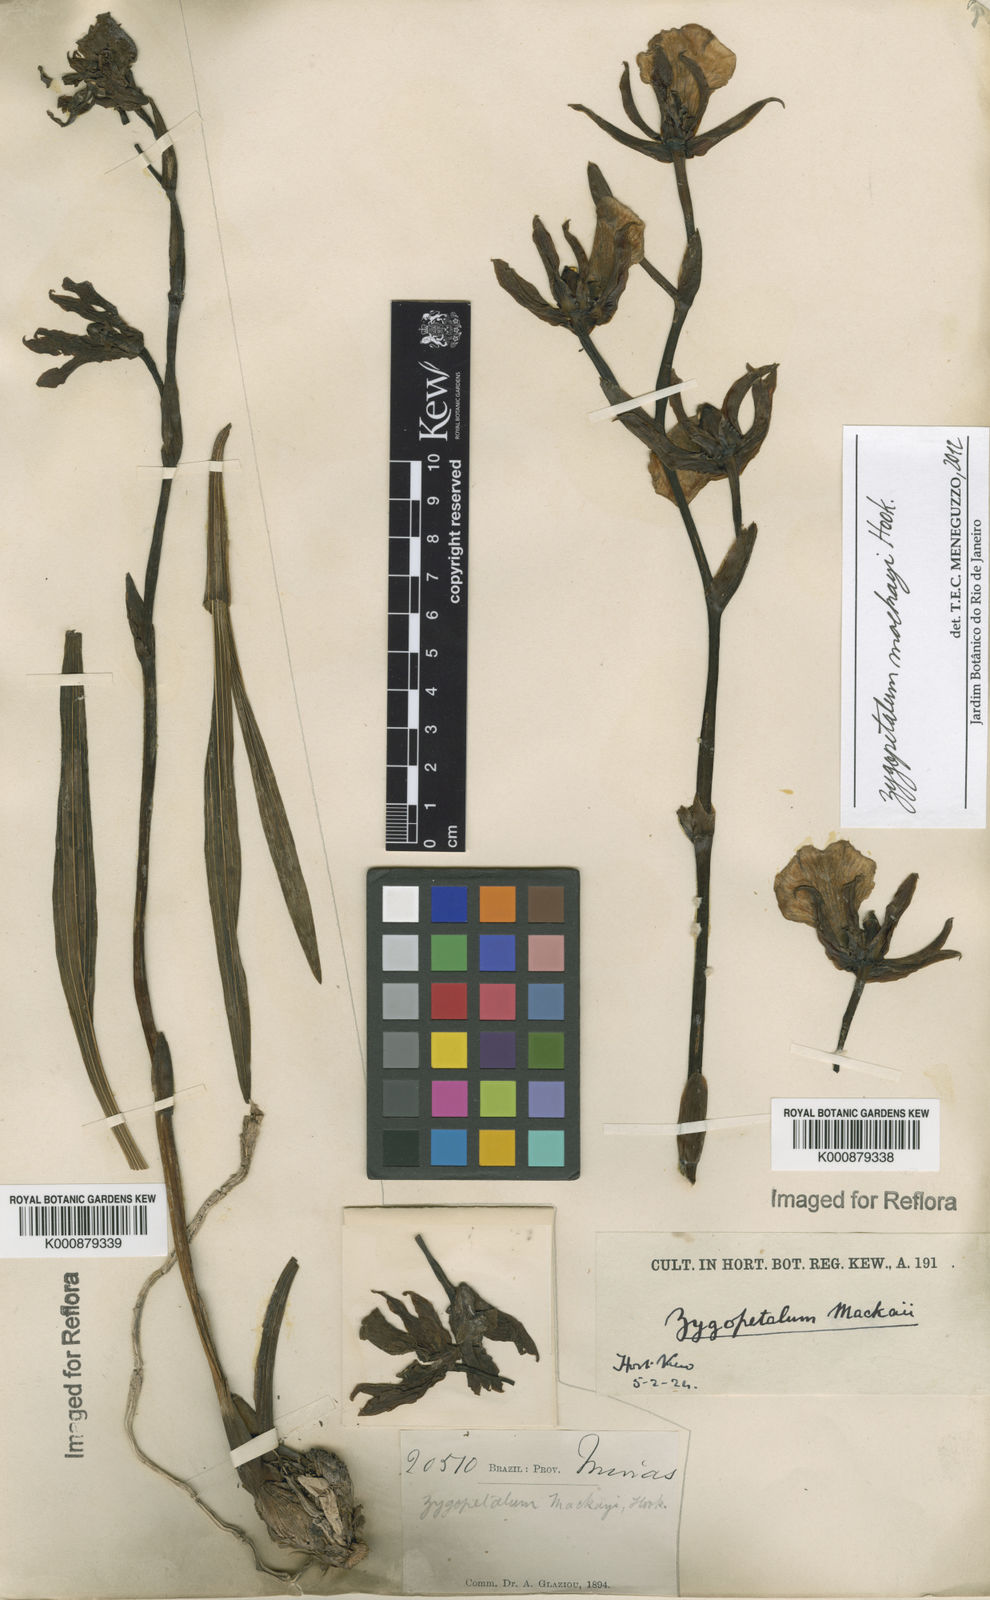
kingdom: Plantae
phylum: Tracheophyta
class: Liliopsida
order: Asparagales
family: Orchidaceae
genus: Zygopetalum
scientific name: Zygopetalum maculatum
